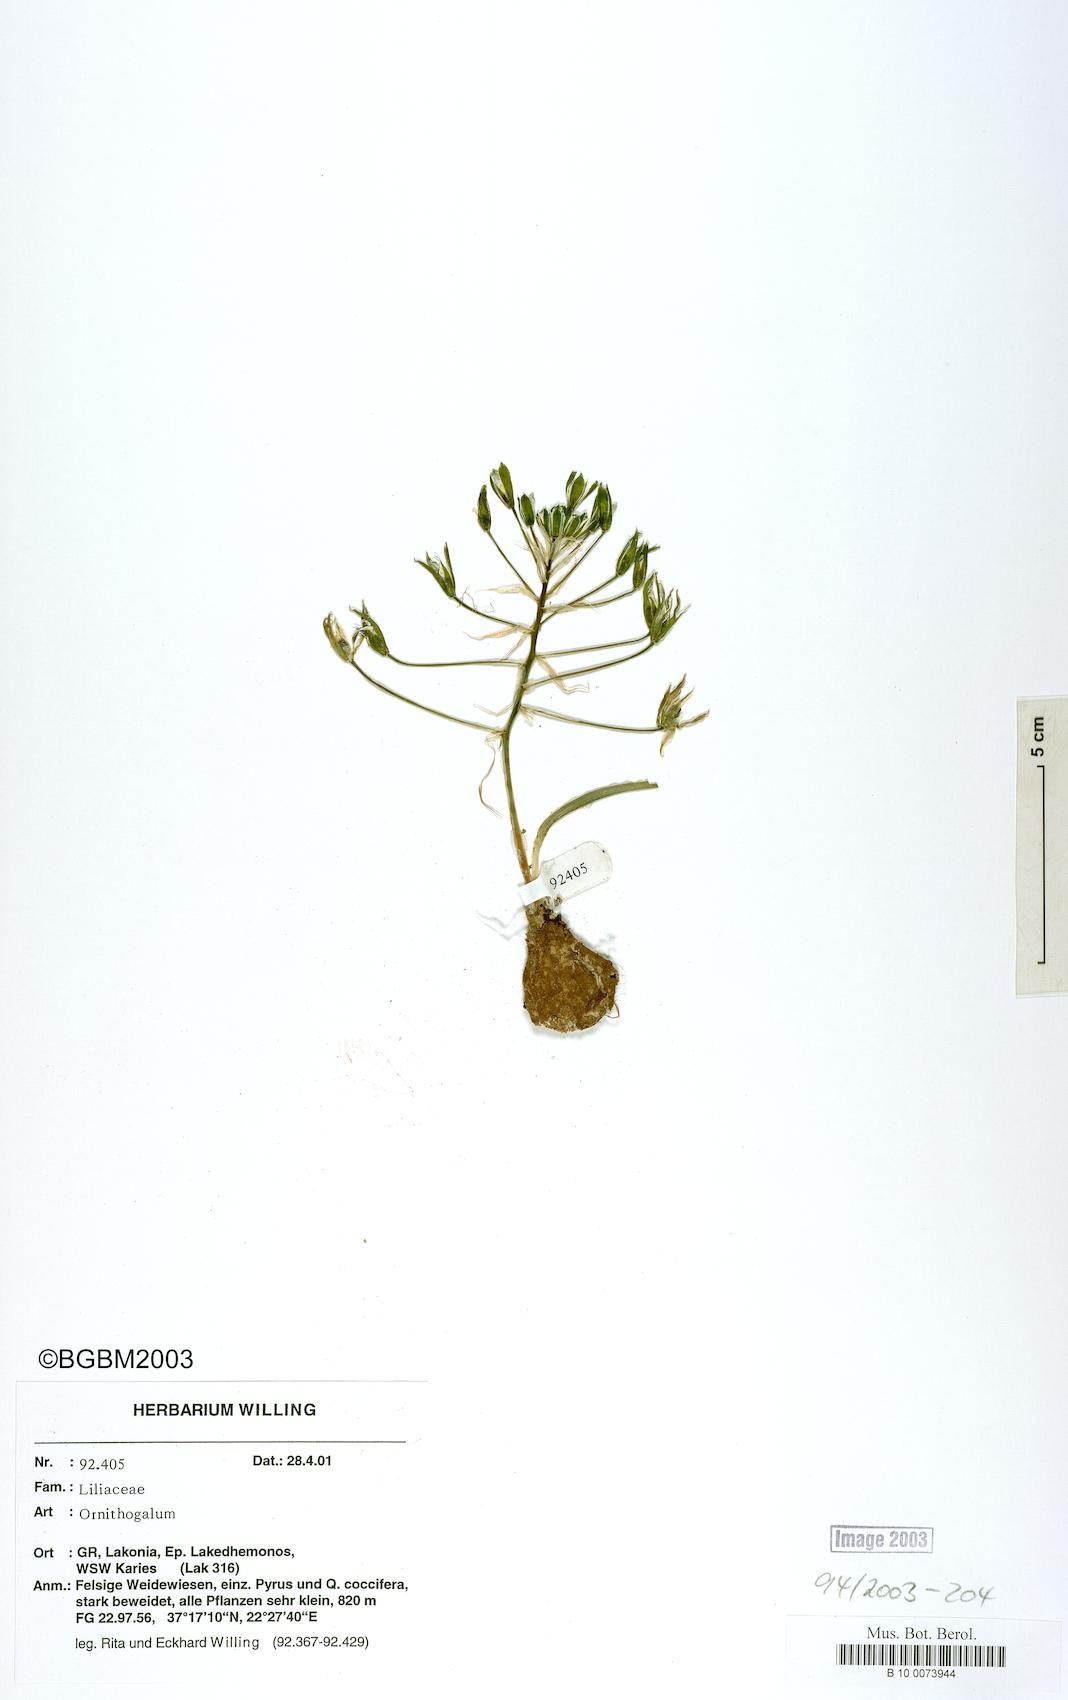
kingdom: Plantae
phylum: Tracheophyta
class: Liliopsida
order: Asparagales
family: Asparagaceae
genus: Ornithogalum
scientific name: Ornithogalum
